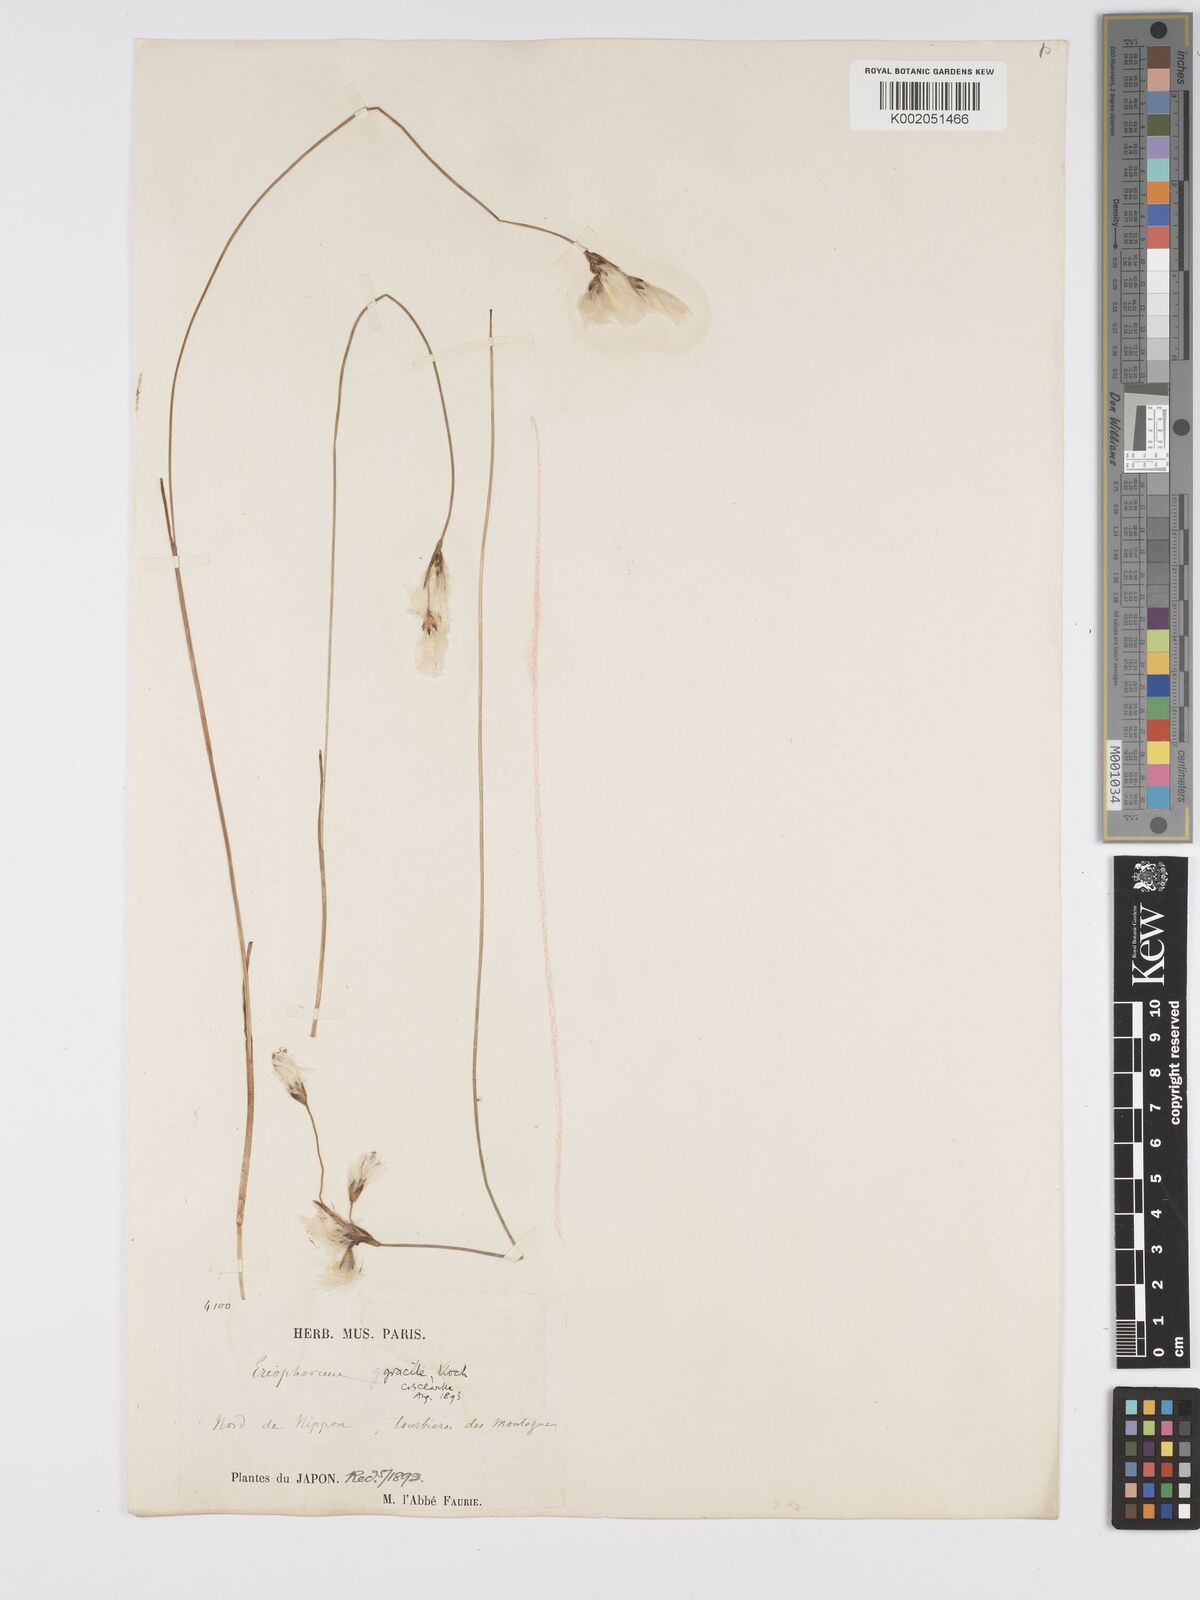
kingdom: Plantae
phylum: Tracheophyta
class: Liliopsida
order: Poales
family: Cyperaceae
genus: Eriophorum
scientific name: Eriophorum gracile
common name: Slender cottongrass
